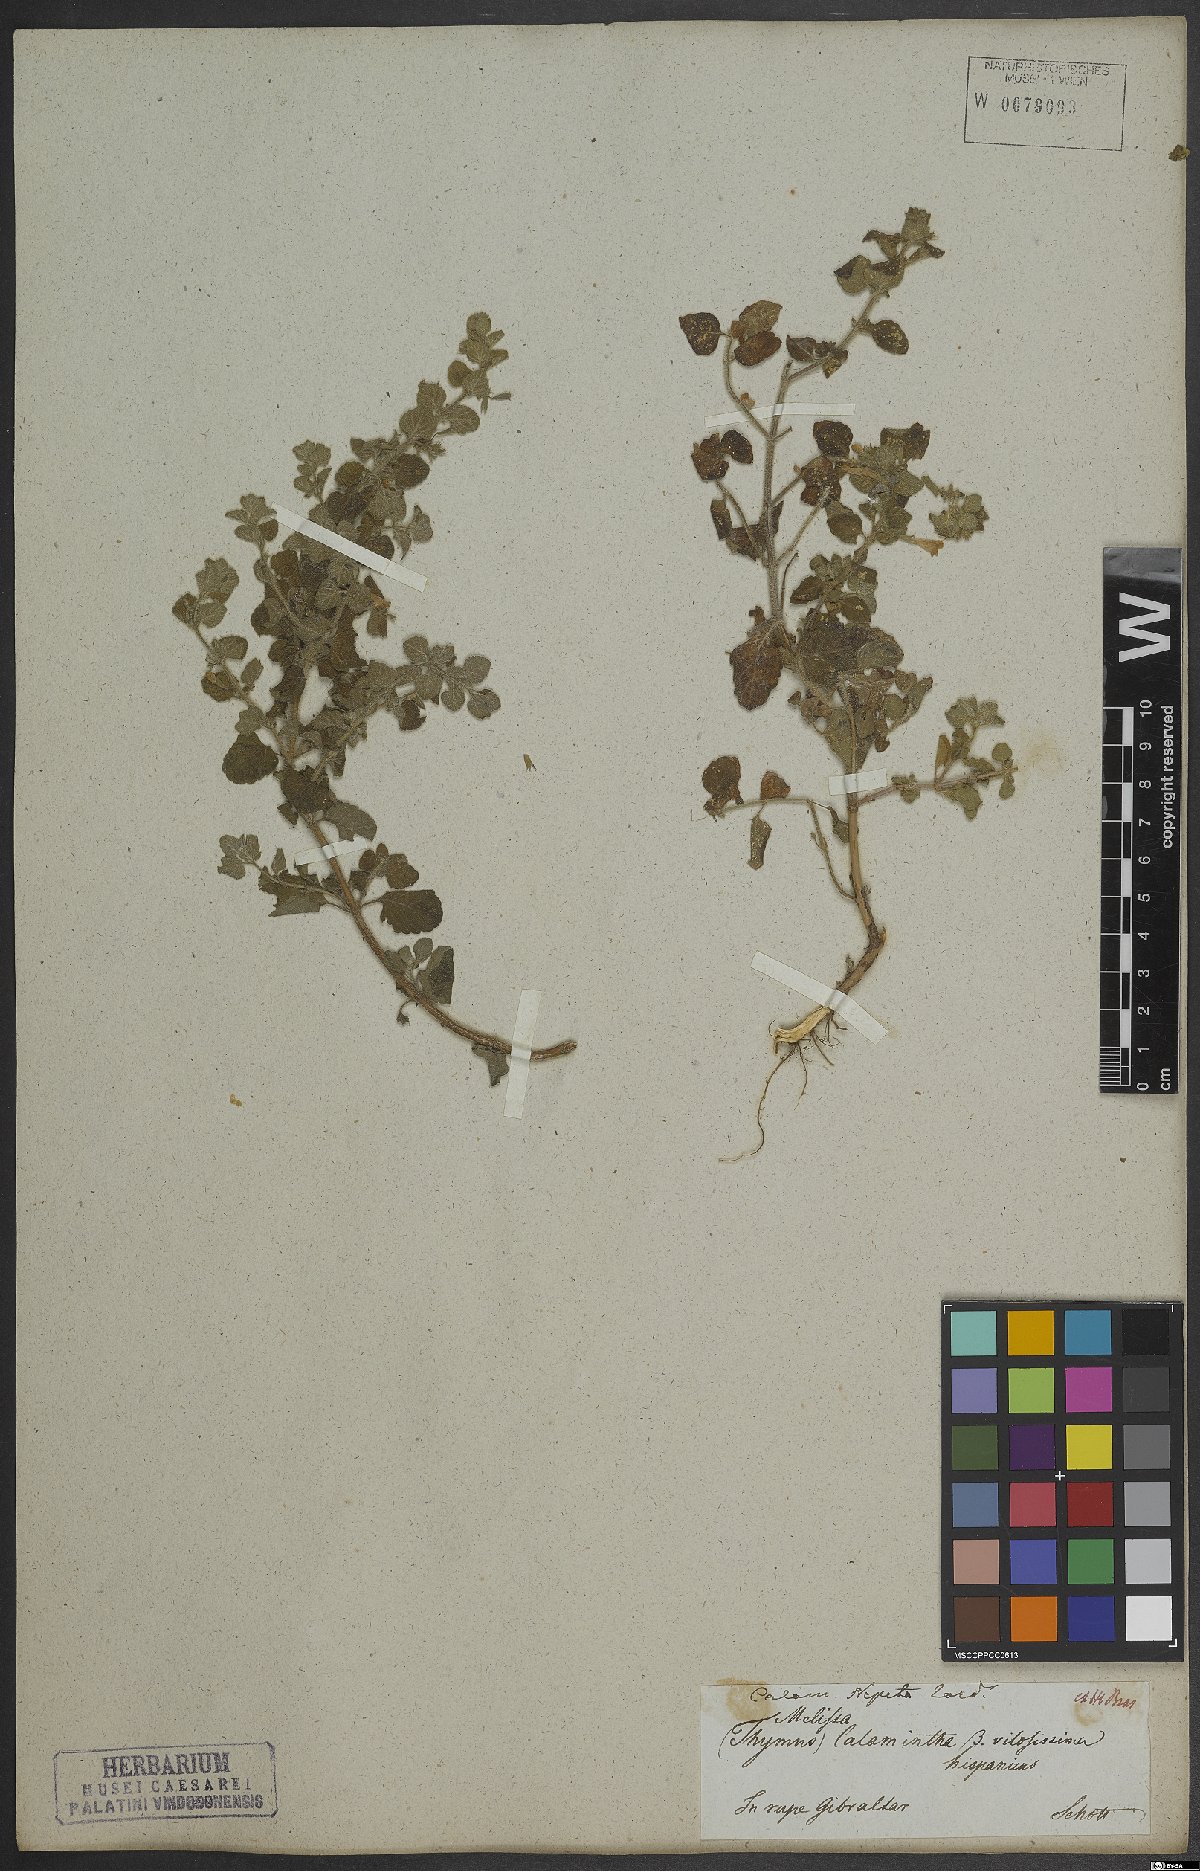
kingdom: Plantae
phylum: Tracheophyta
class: Magnoliopsida
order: Lamiales
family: Lamiaceae
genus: Clinopodium
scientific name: Clinopodium nepeta
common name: Lesser calamint
